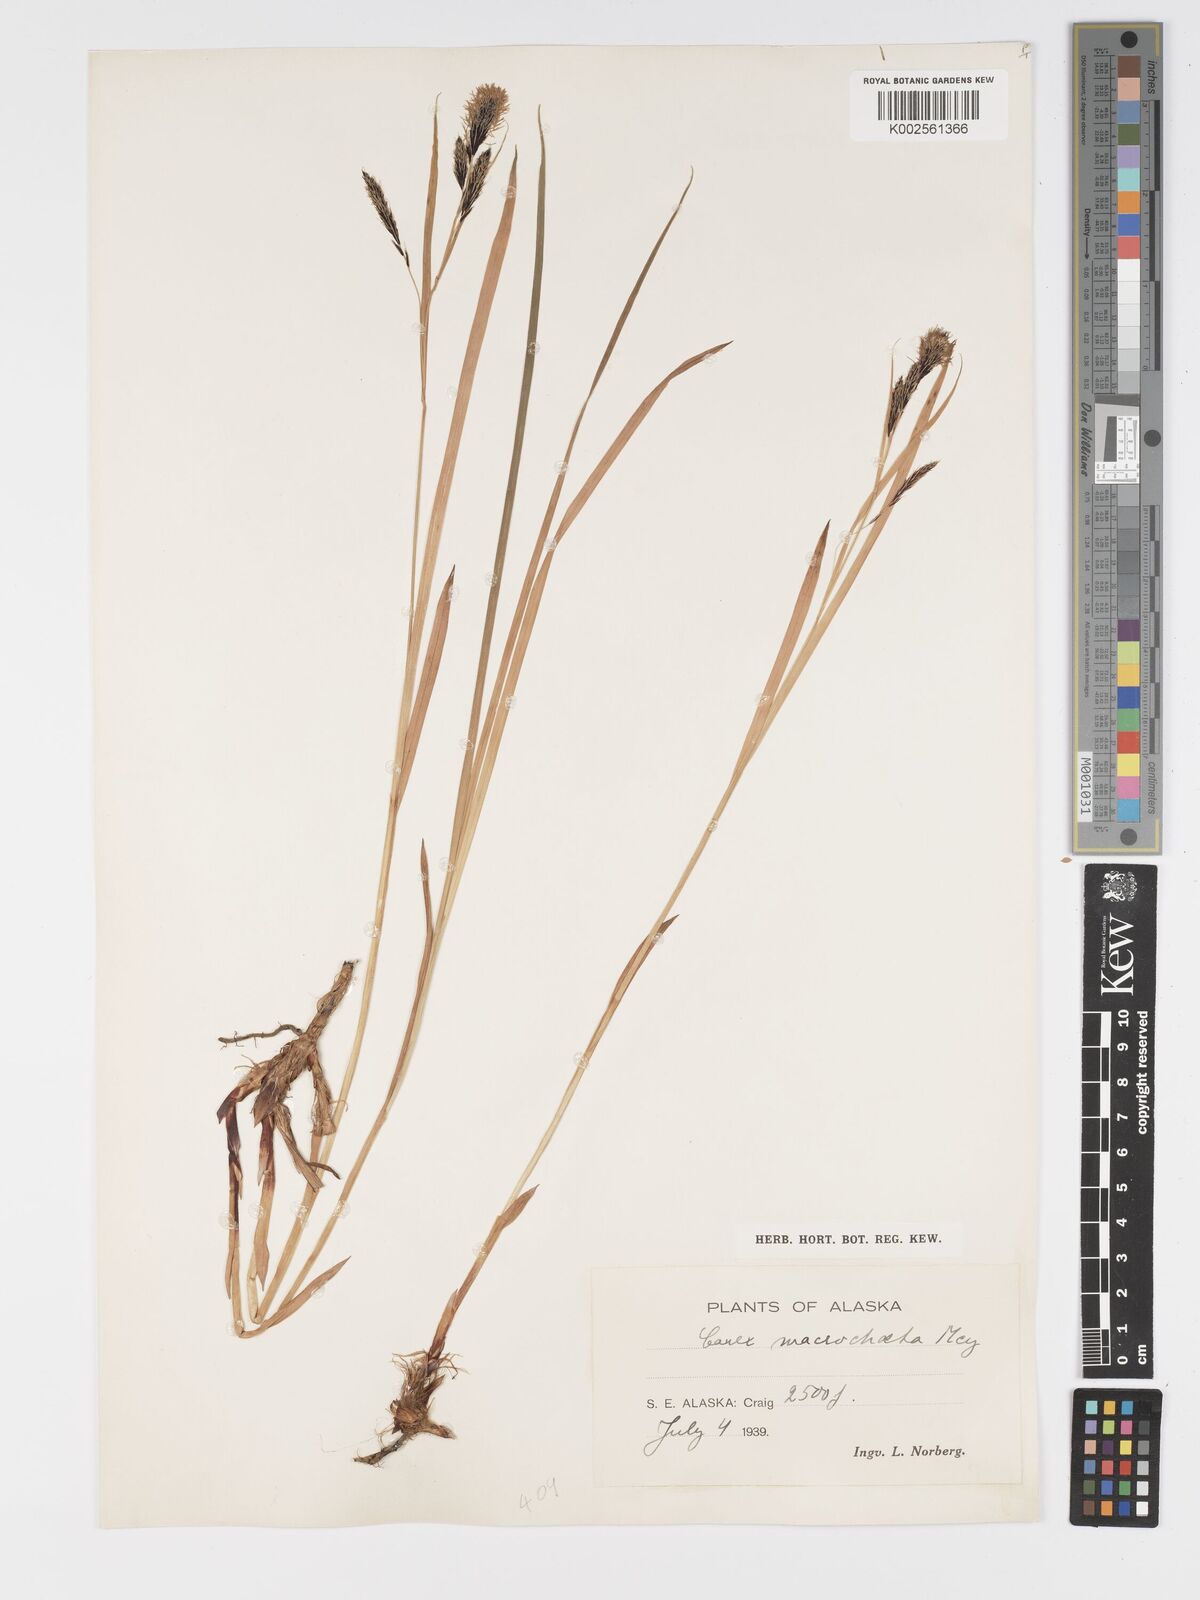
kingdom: Plantae
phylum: Tracheophyta
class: Liliopsida
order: Poales
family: Cyperaceae
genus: Carex
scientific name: Carex macrochaeta
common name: Alaska large awn sedge
